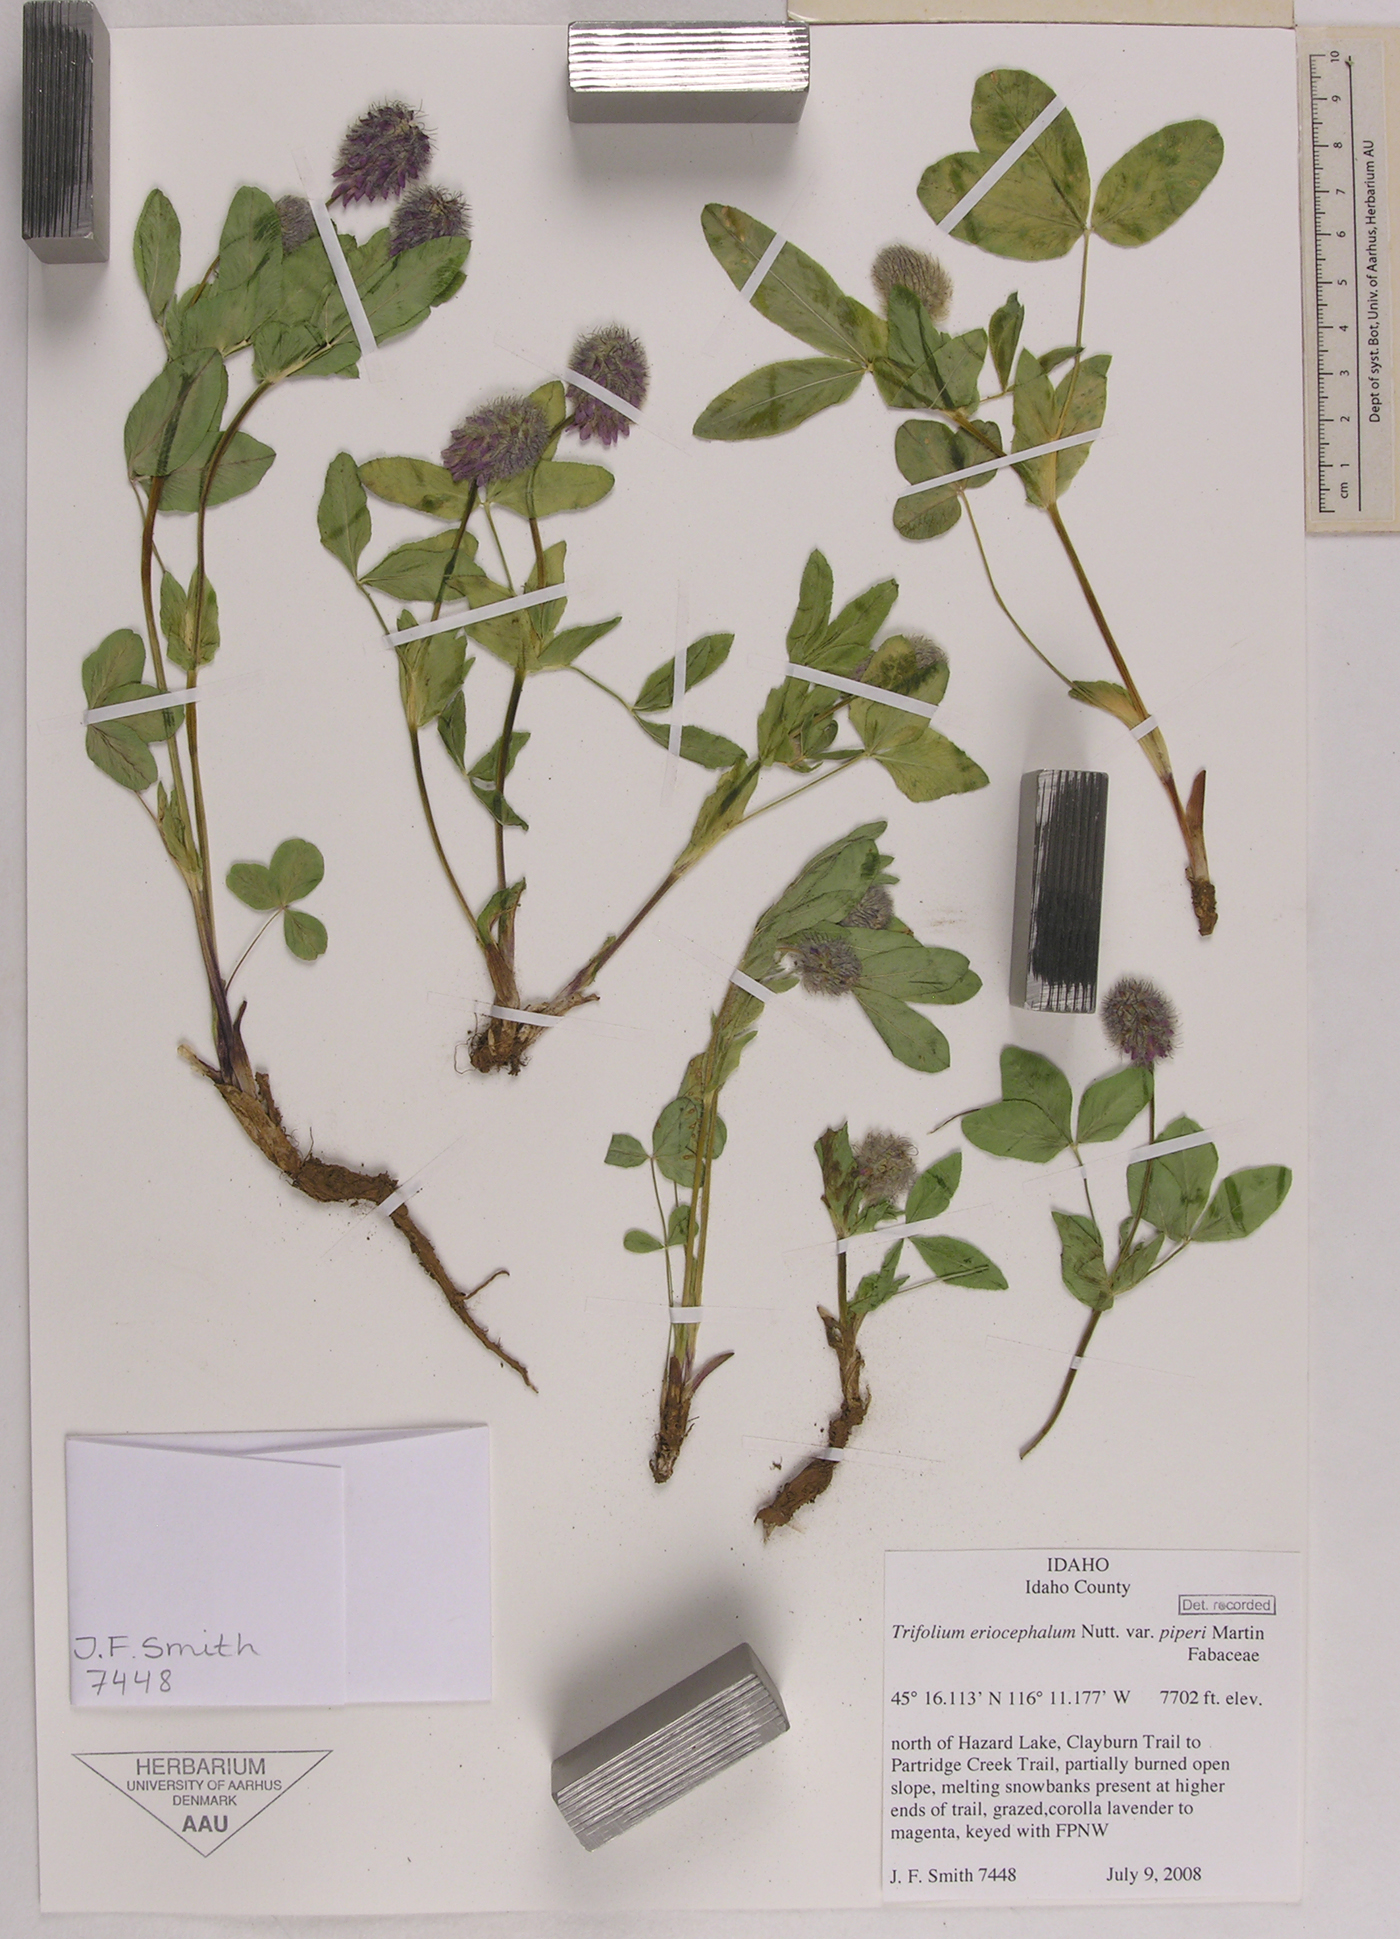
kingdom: Plantae
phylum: Tracheophyta
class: Magnoliopsida
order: Fabales
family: Fabaceae
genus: Trifolium
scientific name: Trifolium eriocephalum
